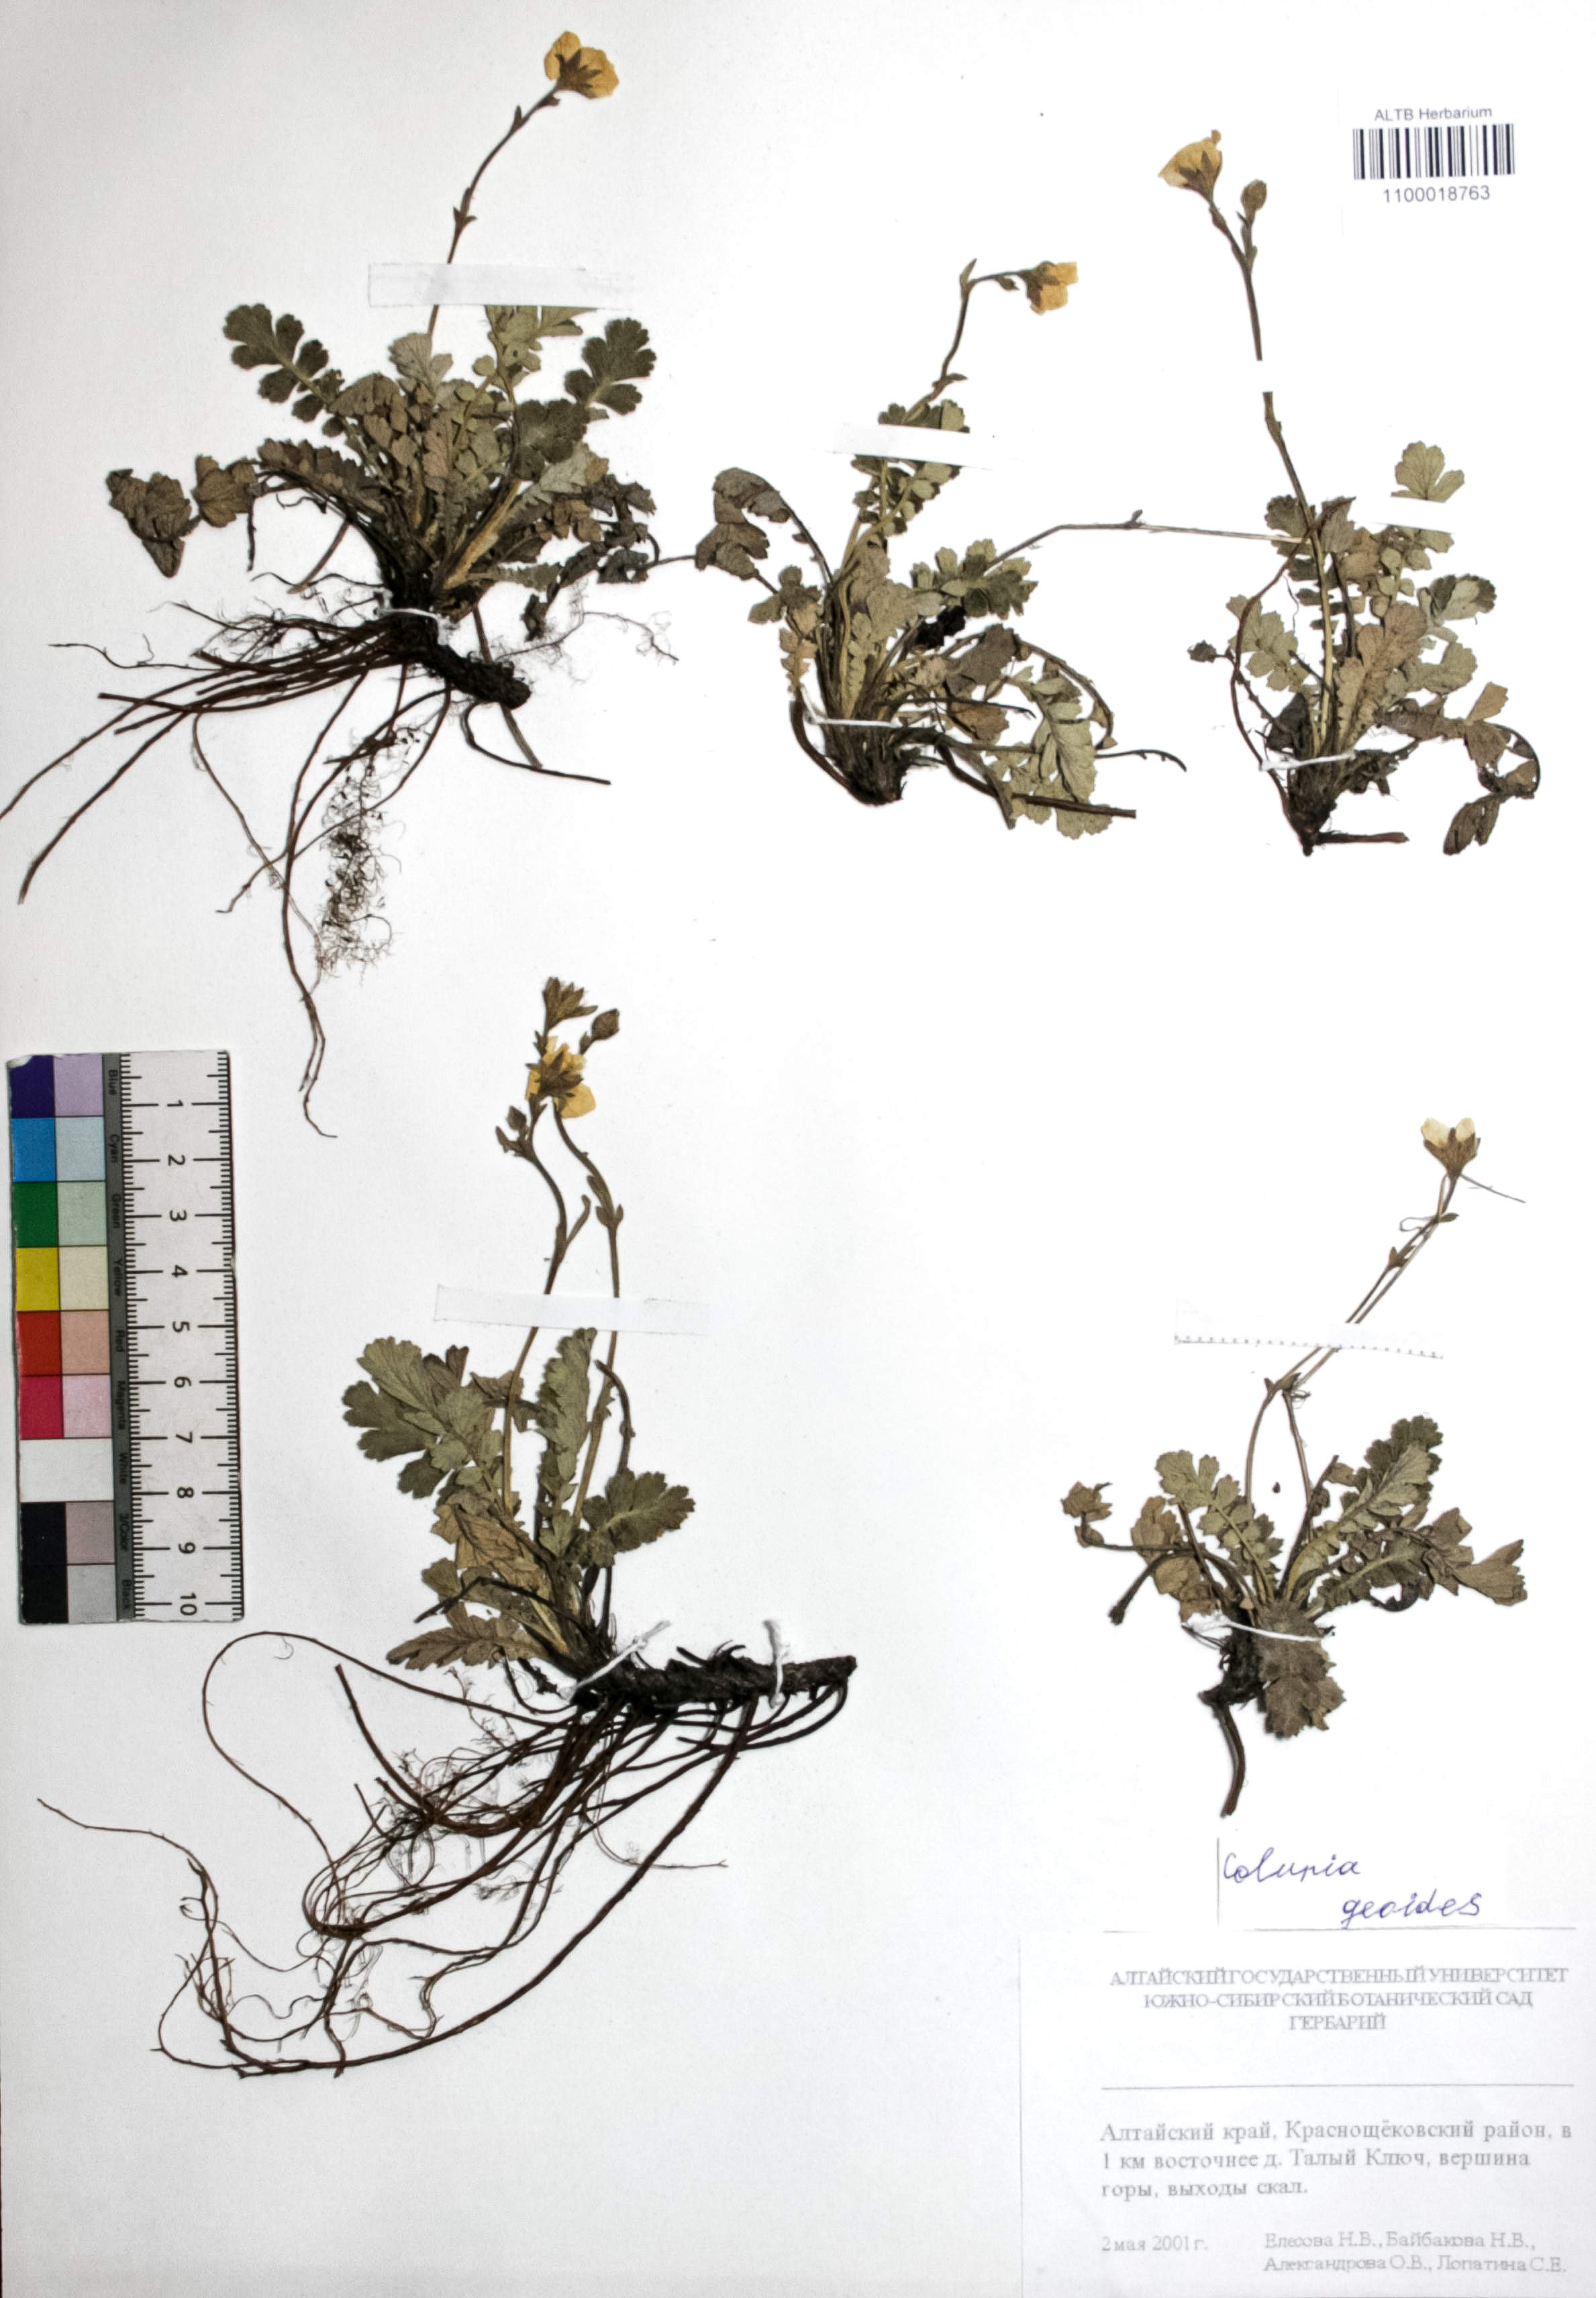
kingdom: Plantae
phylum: Tracheophyta
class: Magnoliopsida
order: Rosales
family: Rosaceae
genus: Geum
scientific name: Geum geoides
